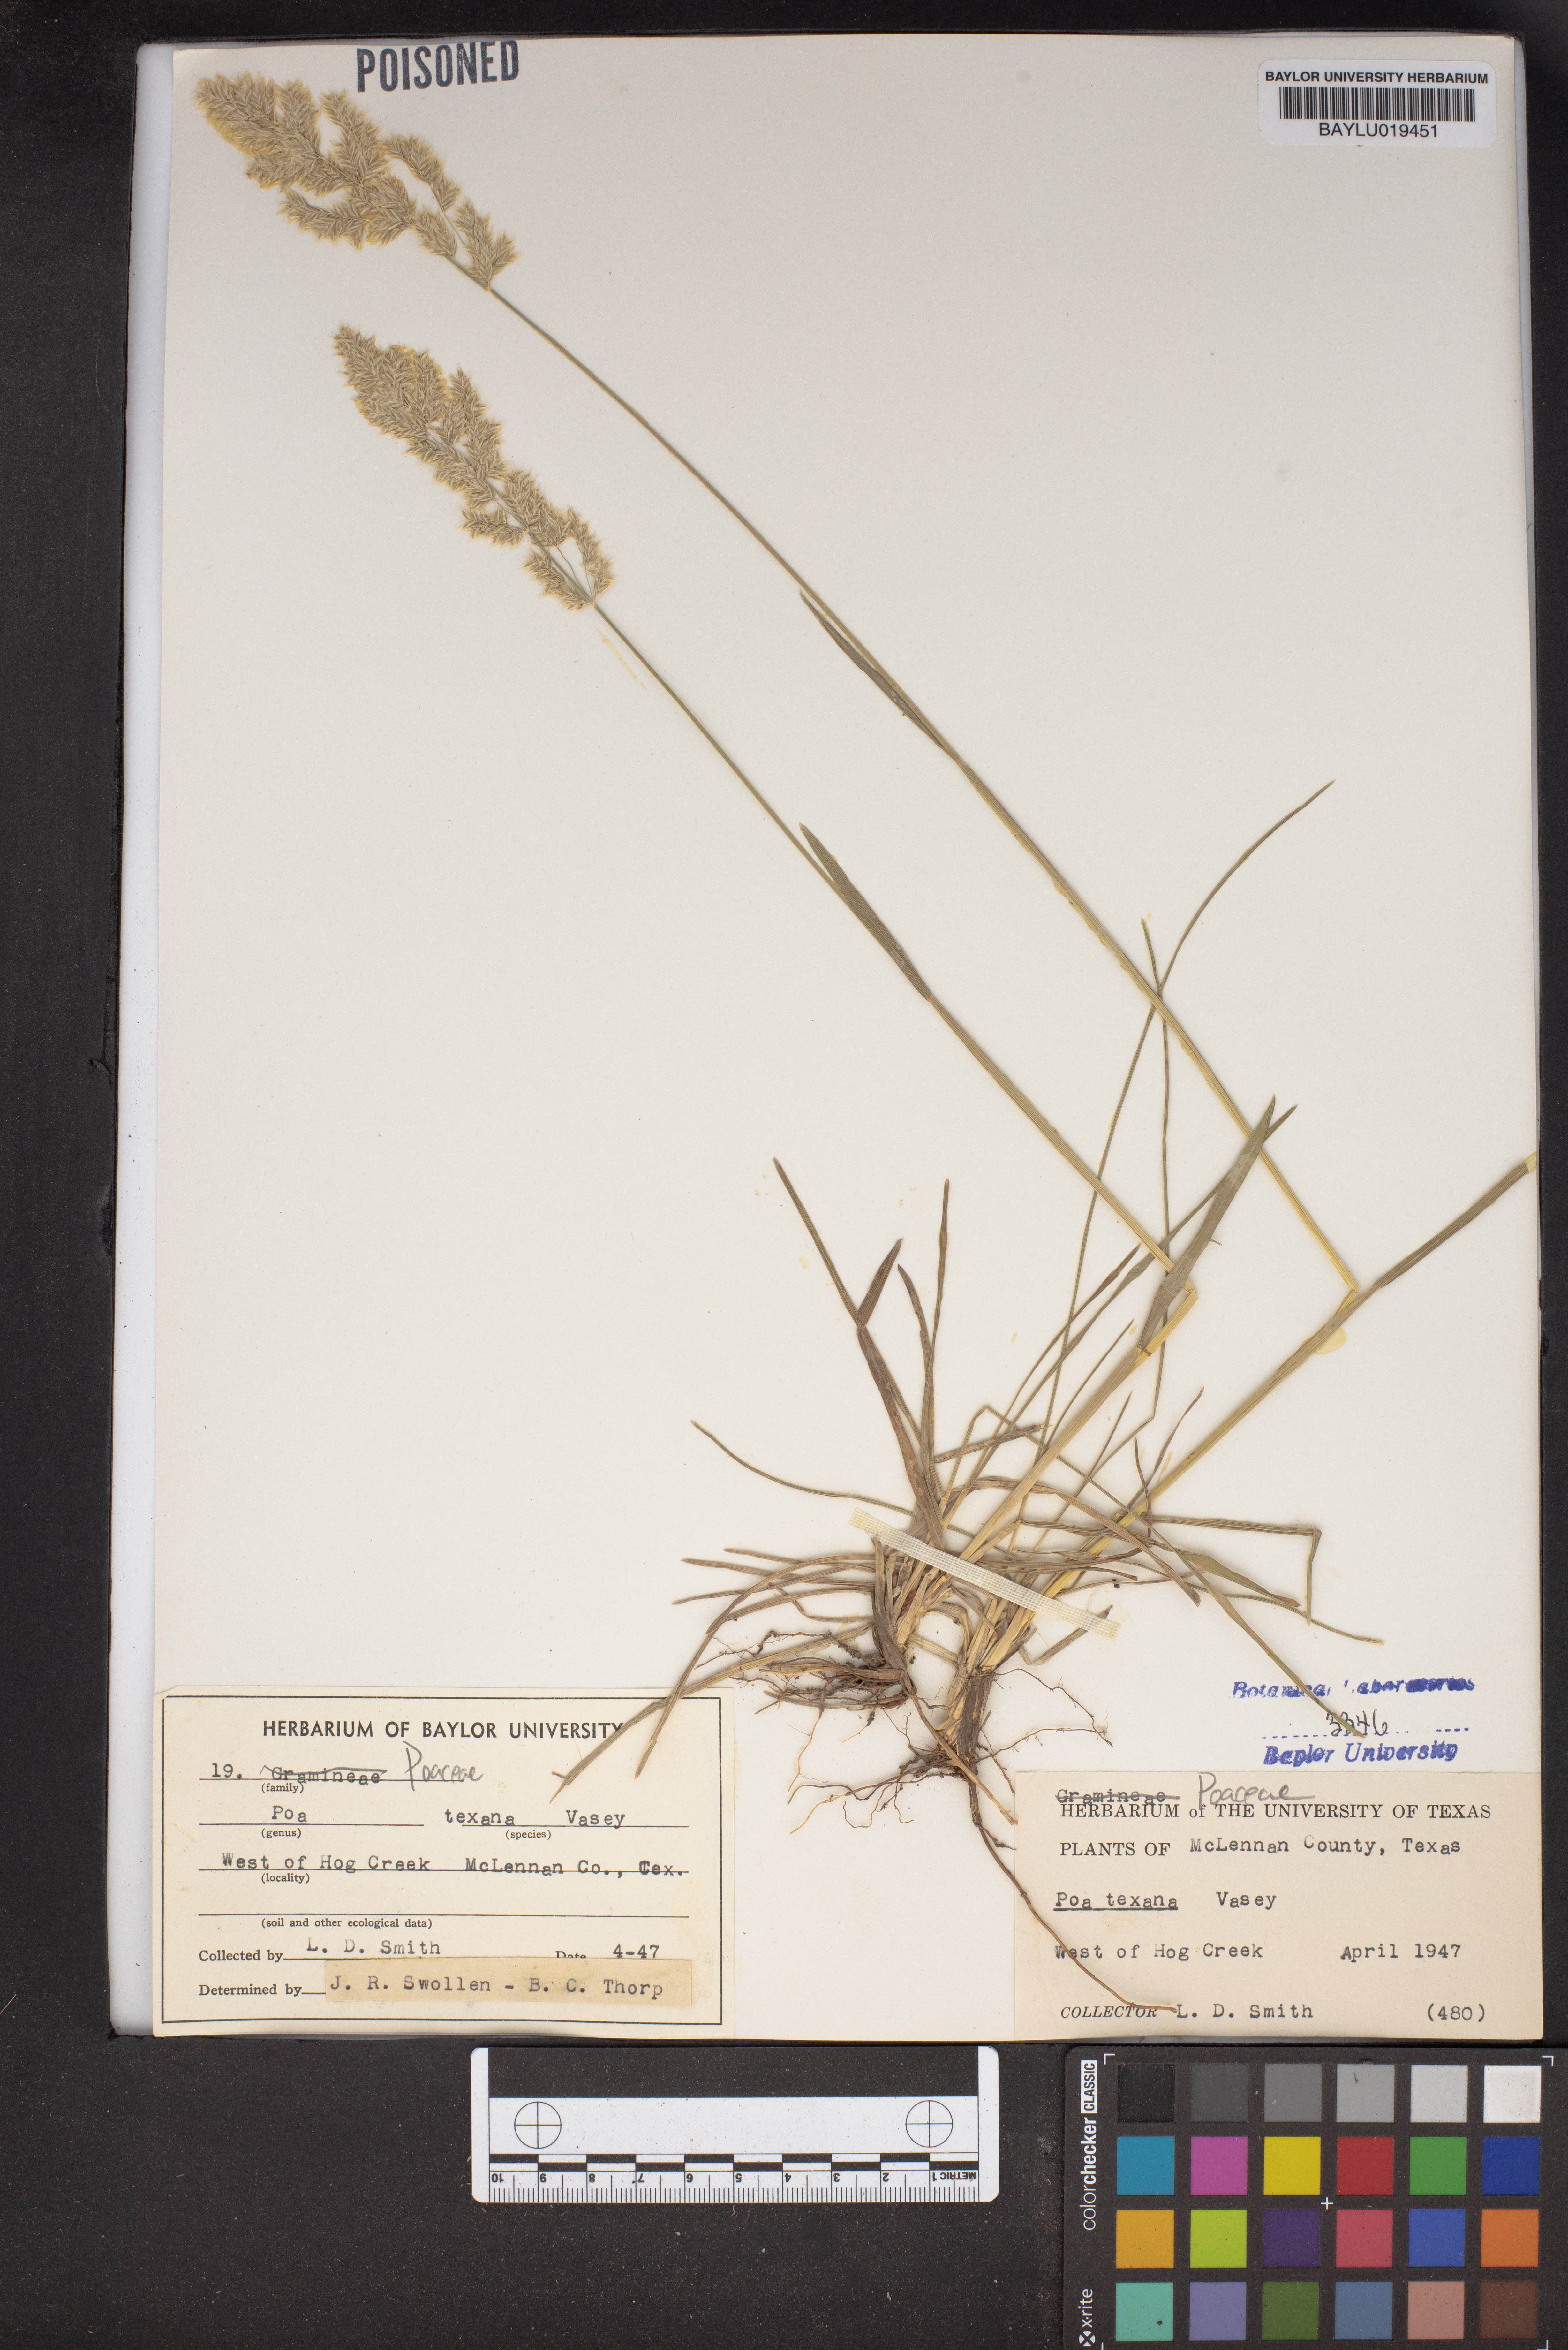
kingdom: Plantae
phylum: Tracheophyta
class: Liliopsida
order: Poales
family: Poaceae
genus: Allolepis
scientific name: Allolepis texana
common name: False salt grass
